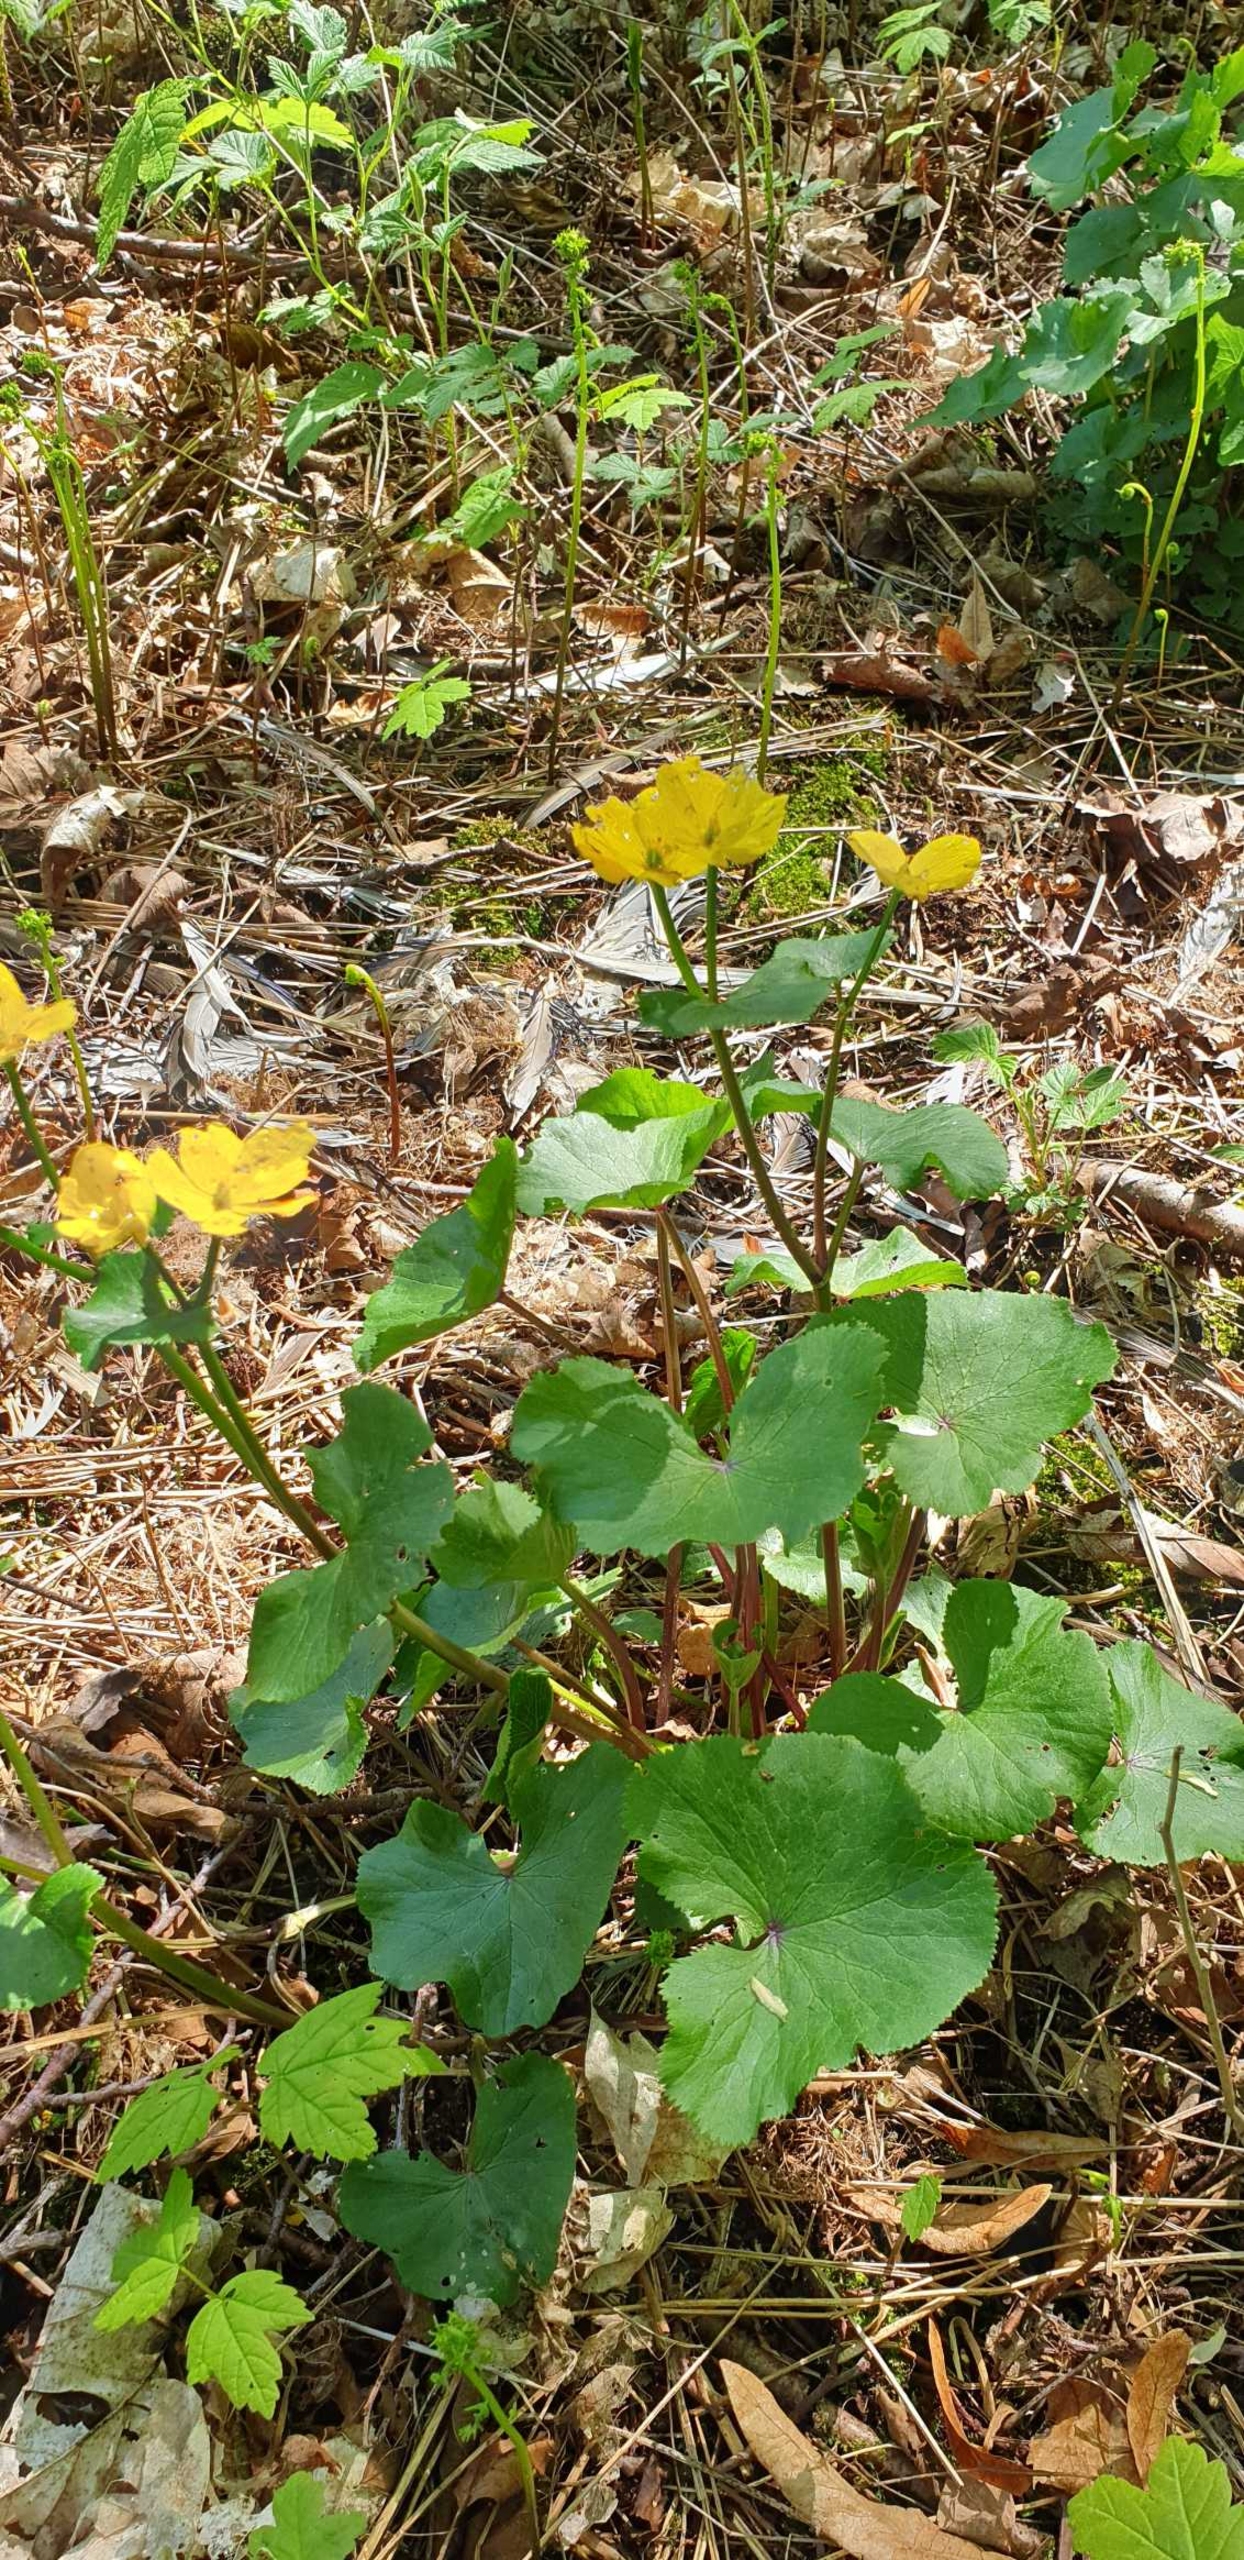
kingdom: Plantae
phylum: Tracheophyta
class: Magnoliopsida
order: Ranunculales
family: Ranunculaceae
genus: Caltha
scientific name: Caltha palustris
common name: Eng-kabbeleje
